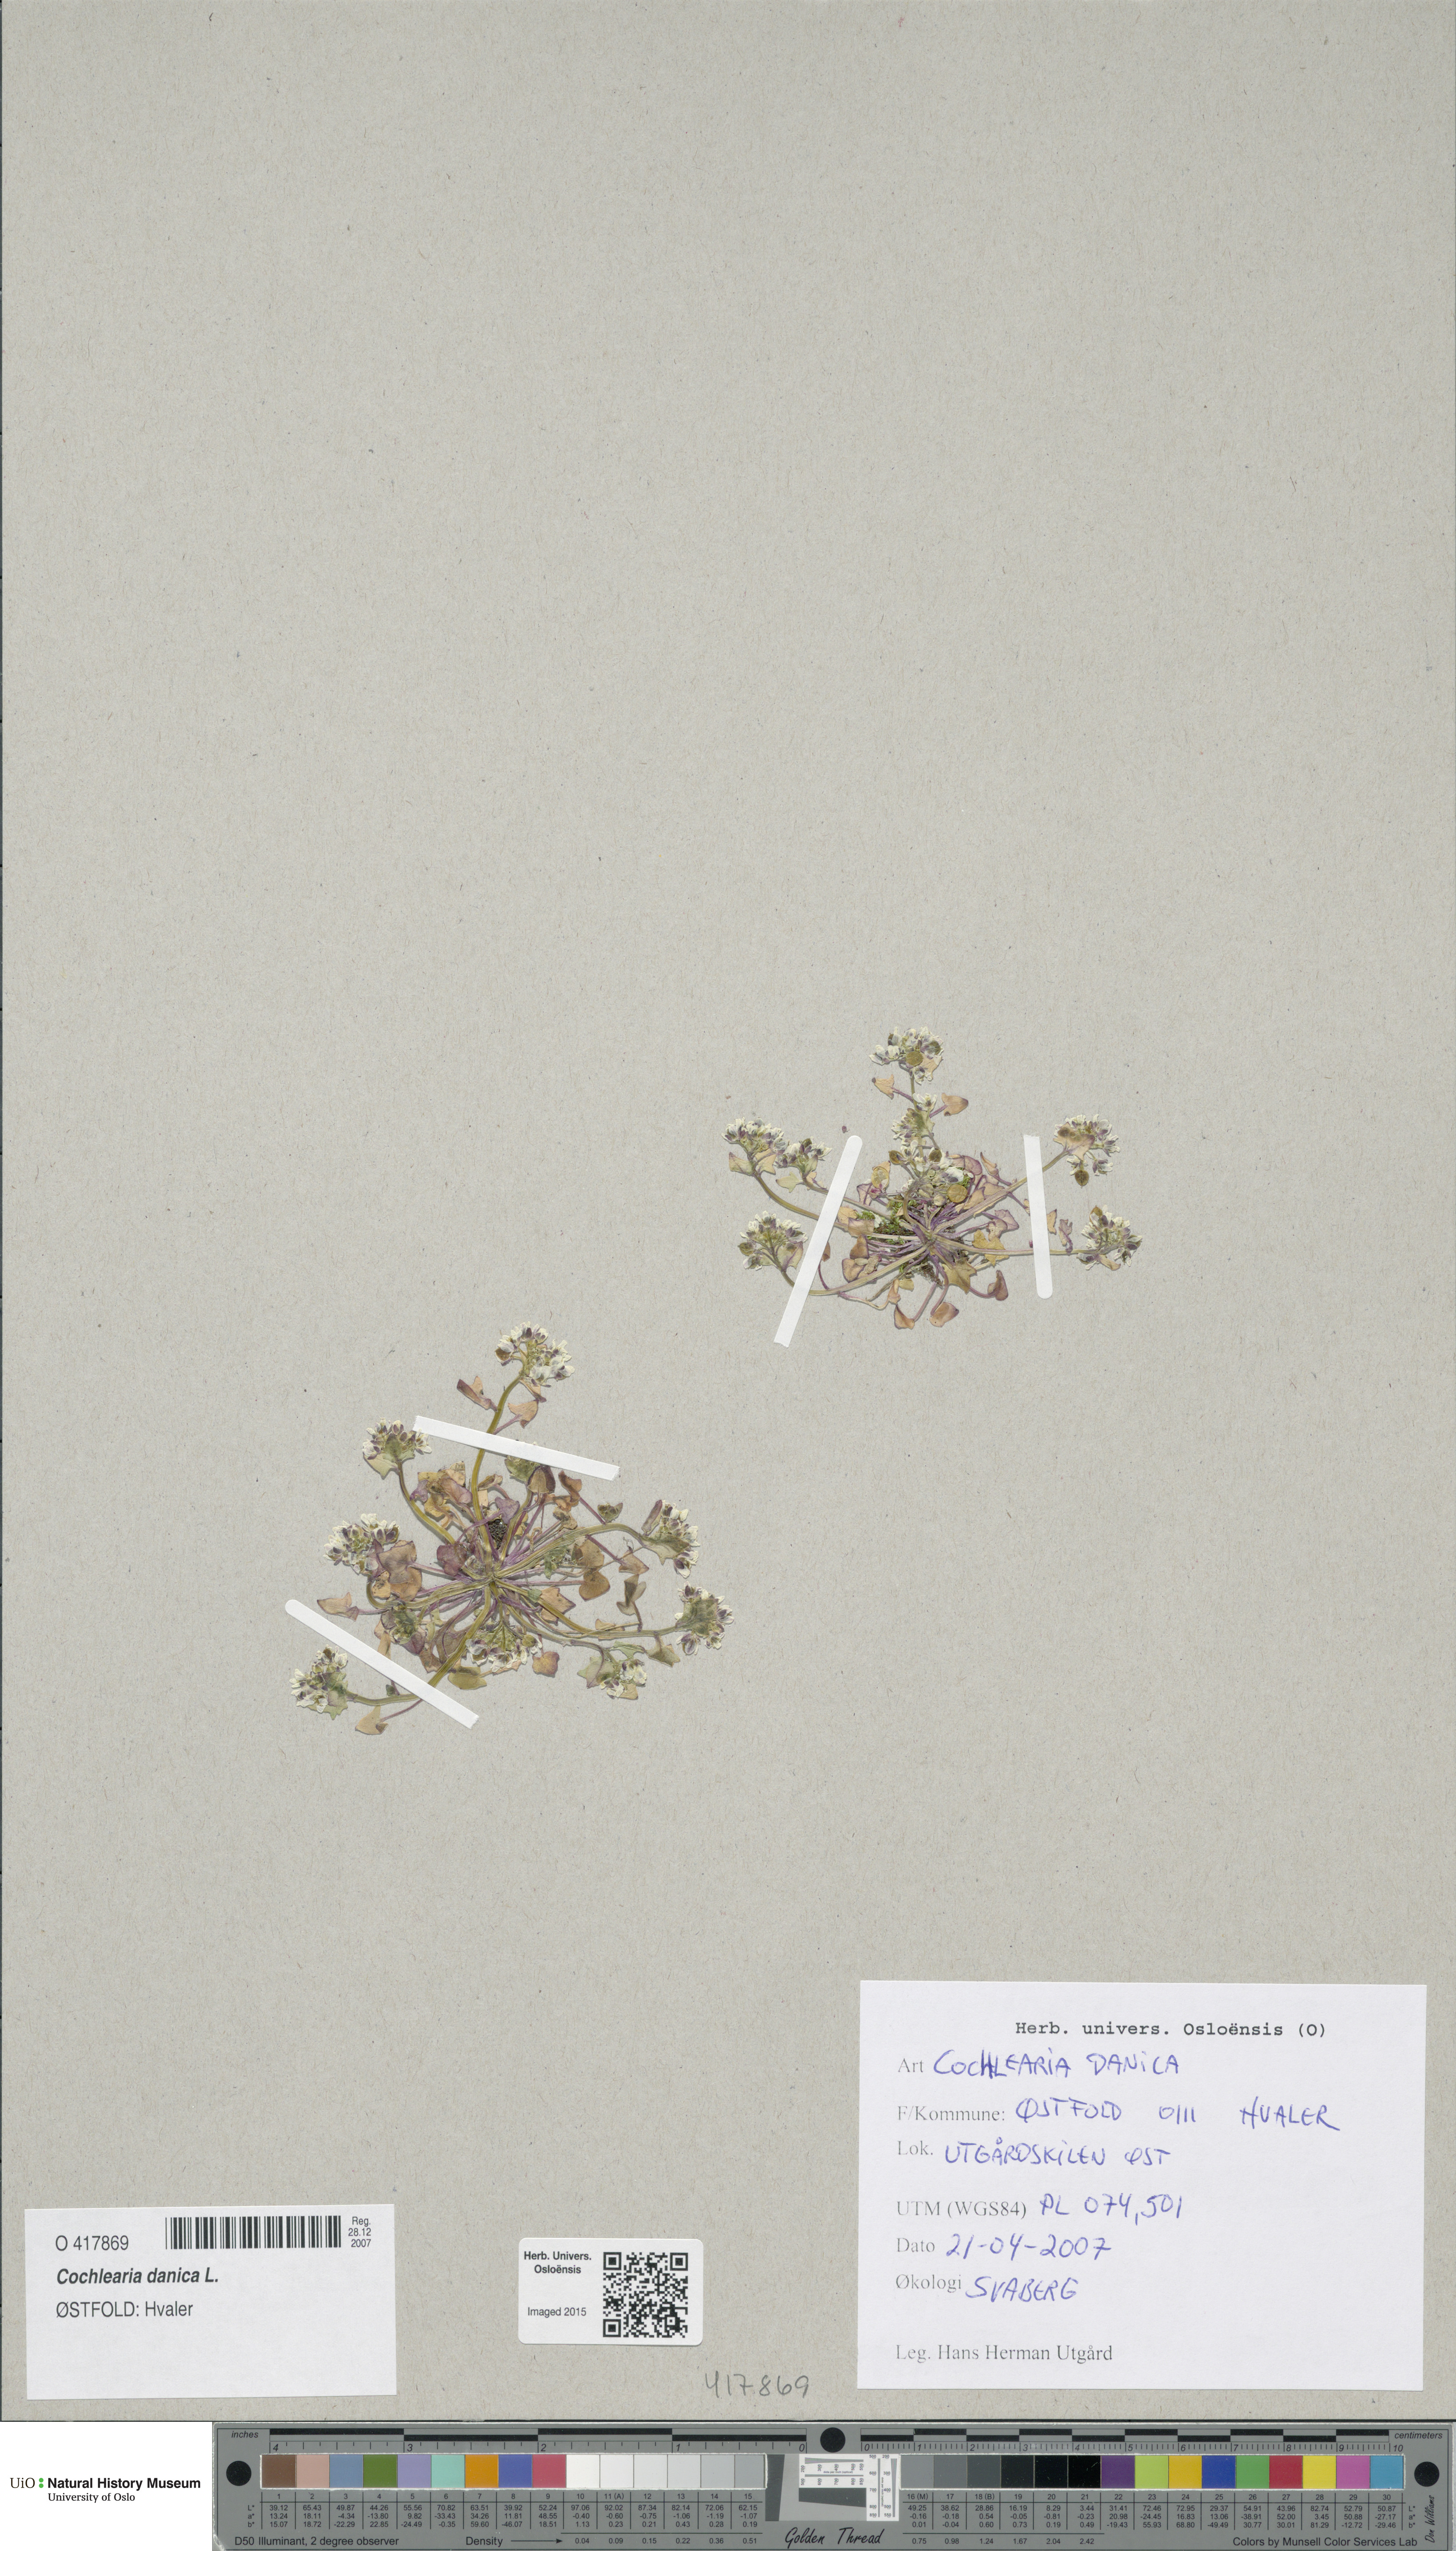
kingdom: Plantae
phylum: Tracheophyta
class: Magnoliopsida
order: Brassicales
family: Brassicaceae
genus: Cochlearia
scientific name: Cochlearia danica
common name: Early scurvygrass
